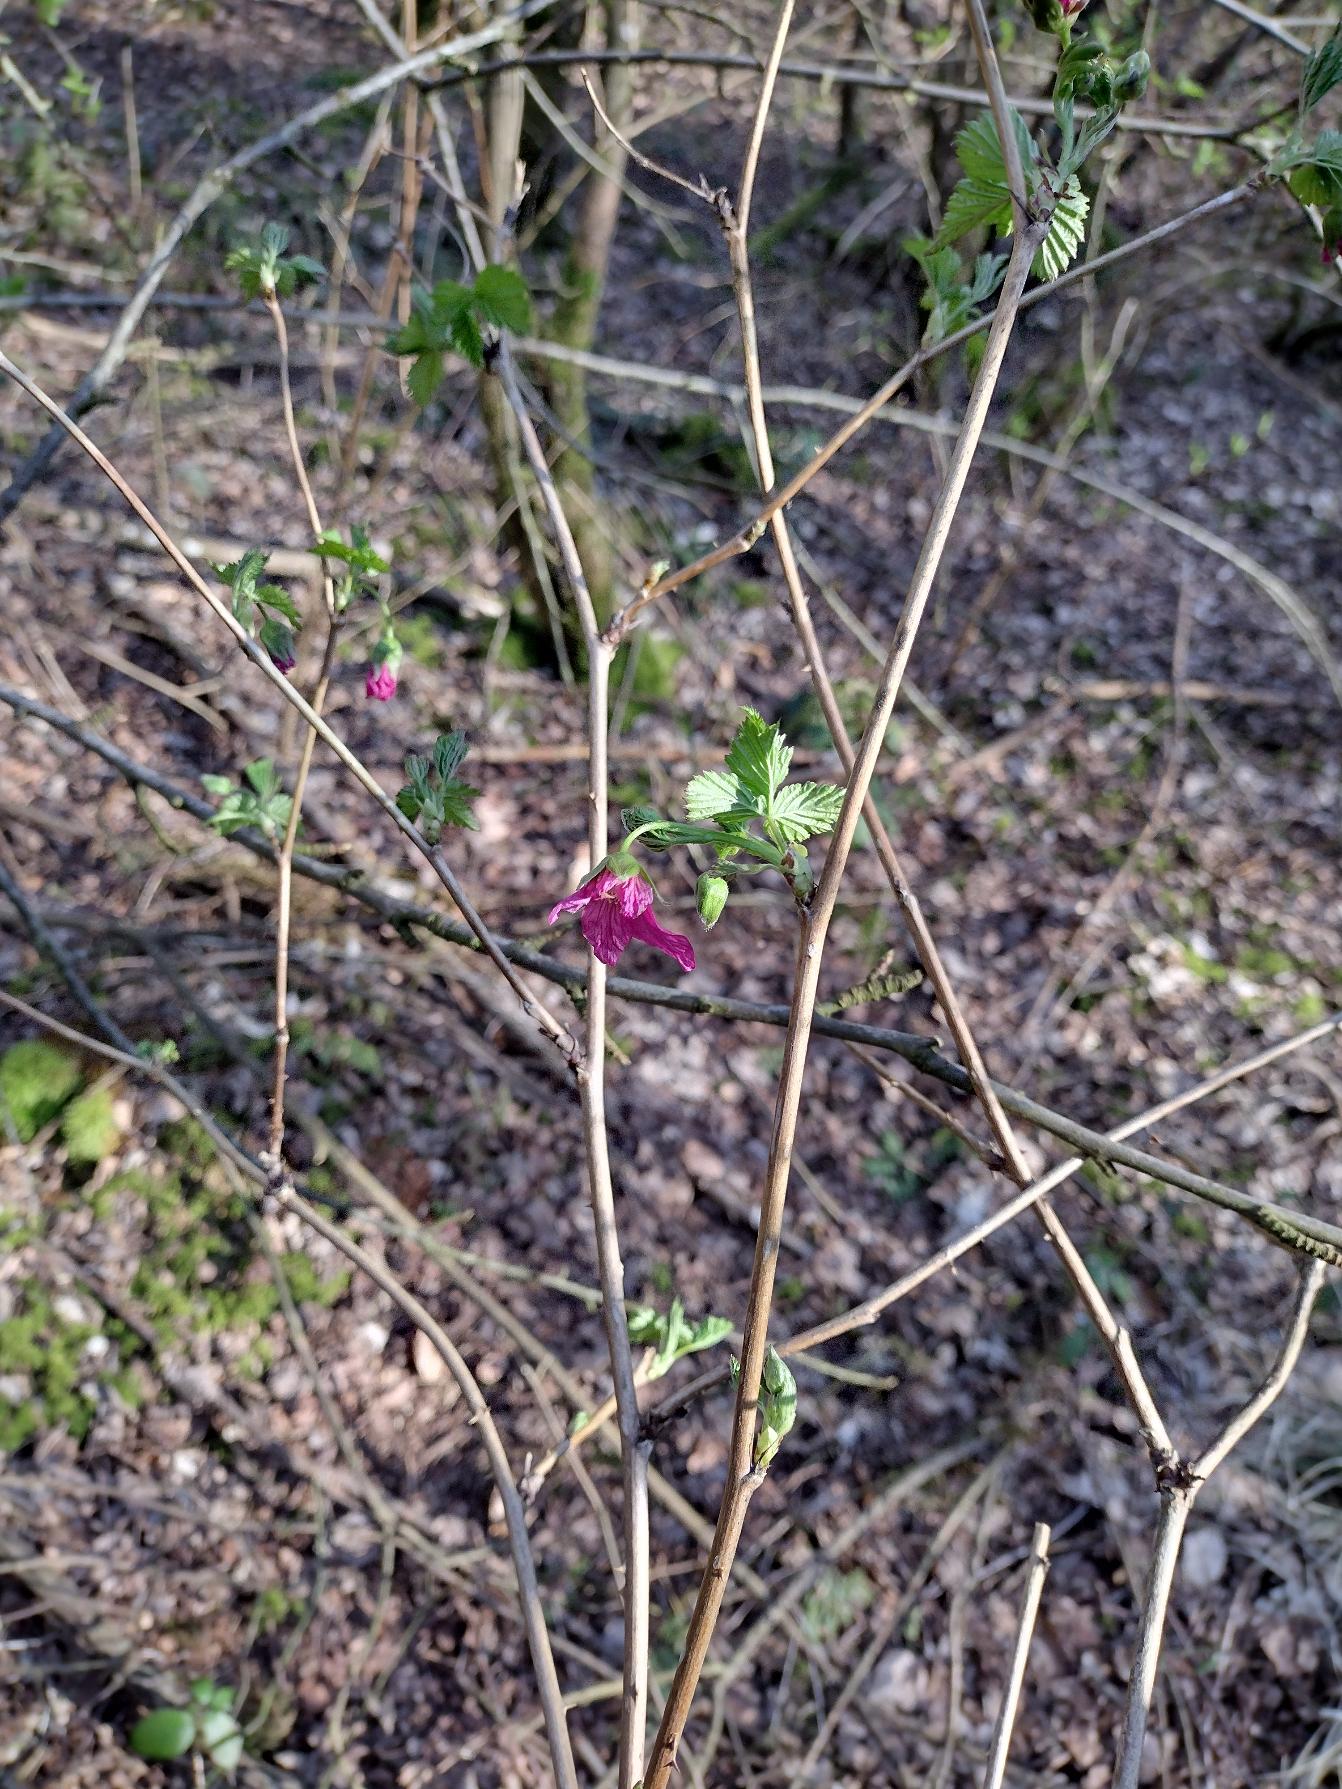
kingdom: Plantae
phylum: Tracheophyta
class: Magnoliopsida
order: Rosales
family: Rosaceae
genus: Rubus
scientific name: Rubus spectabilis
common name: Laksebær
